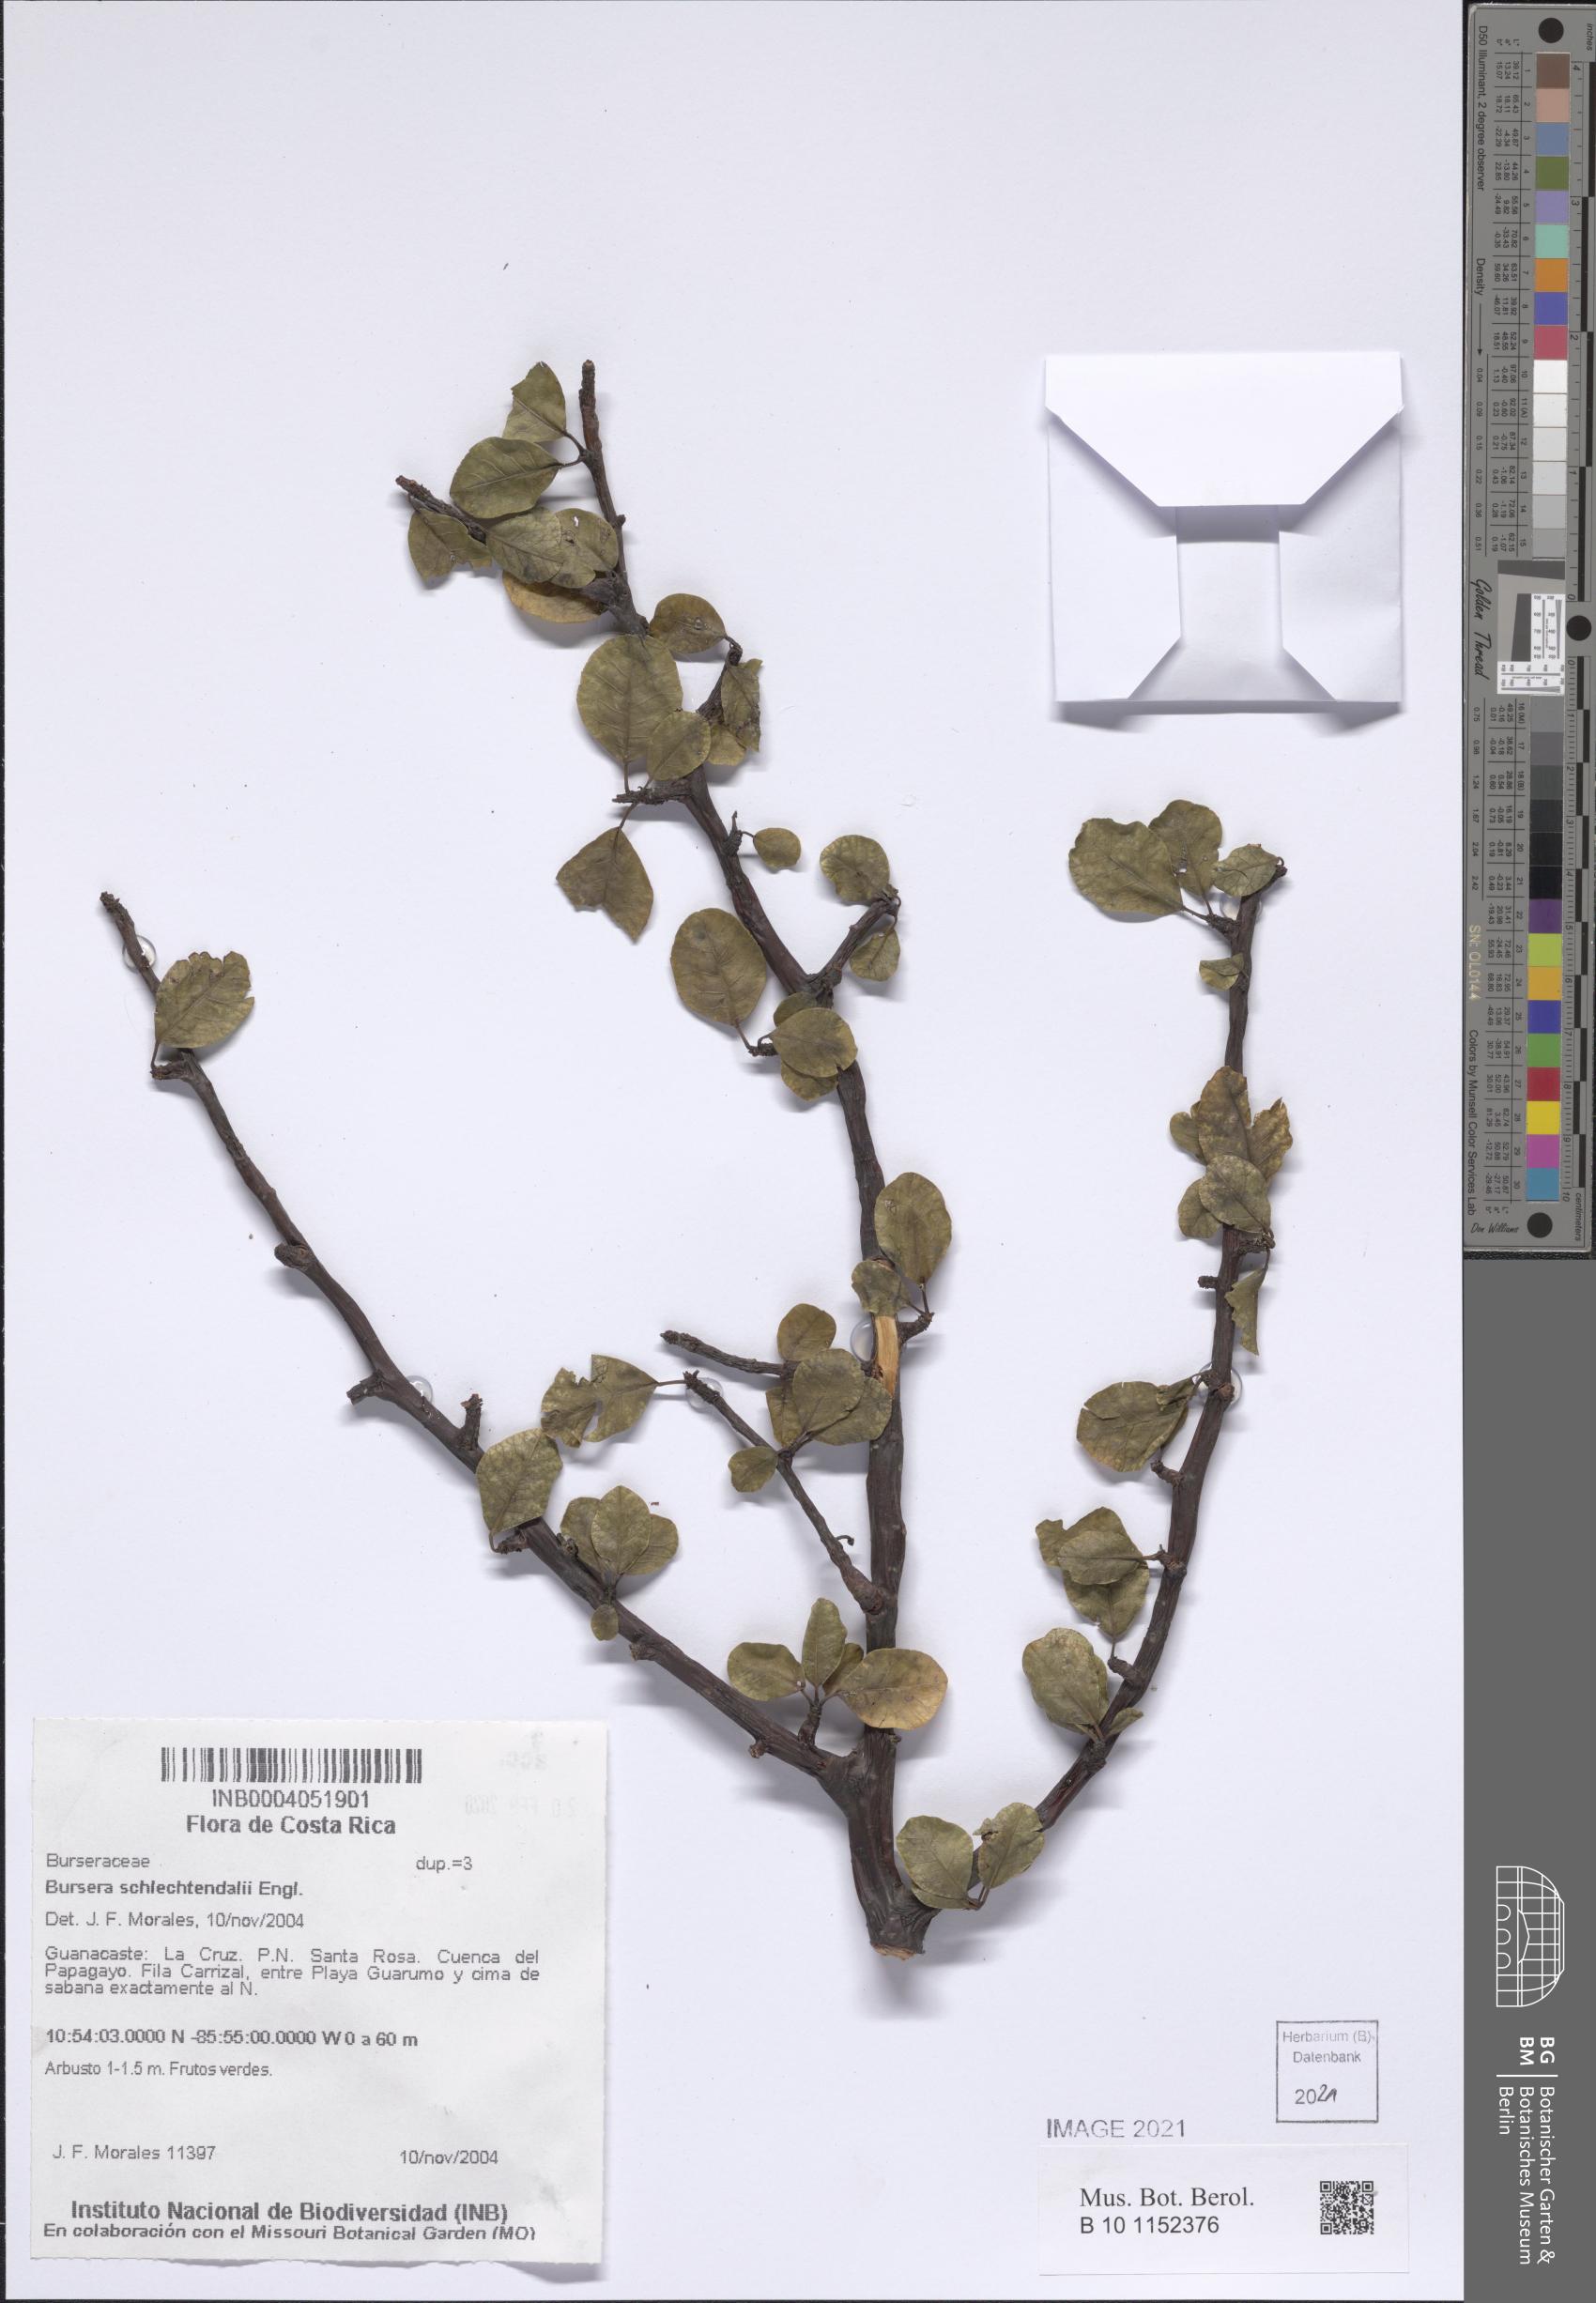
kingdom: Plantae
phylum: Tracheophyta
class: Magnoliopsida
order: Sapindales
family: Burseraceae
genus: Bursera
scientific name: Bursera schlechtendalii
